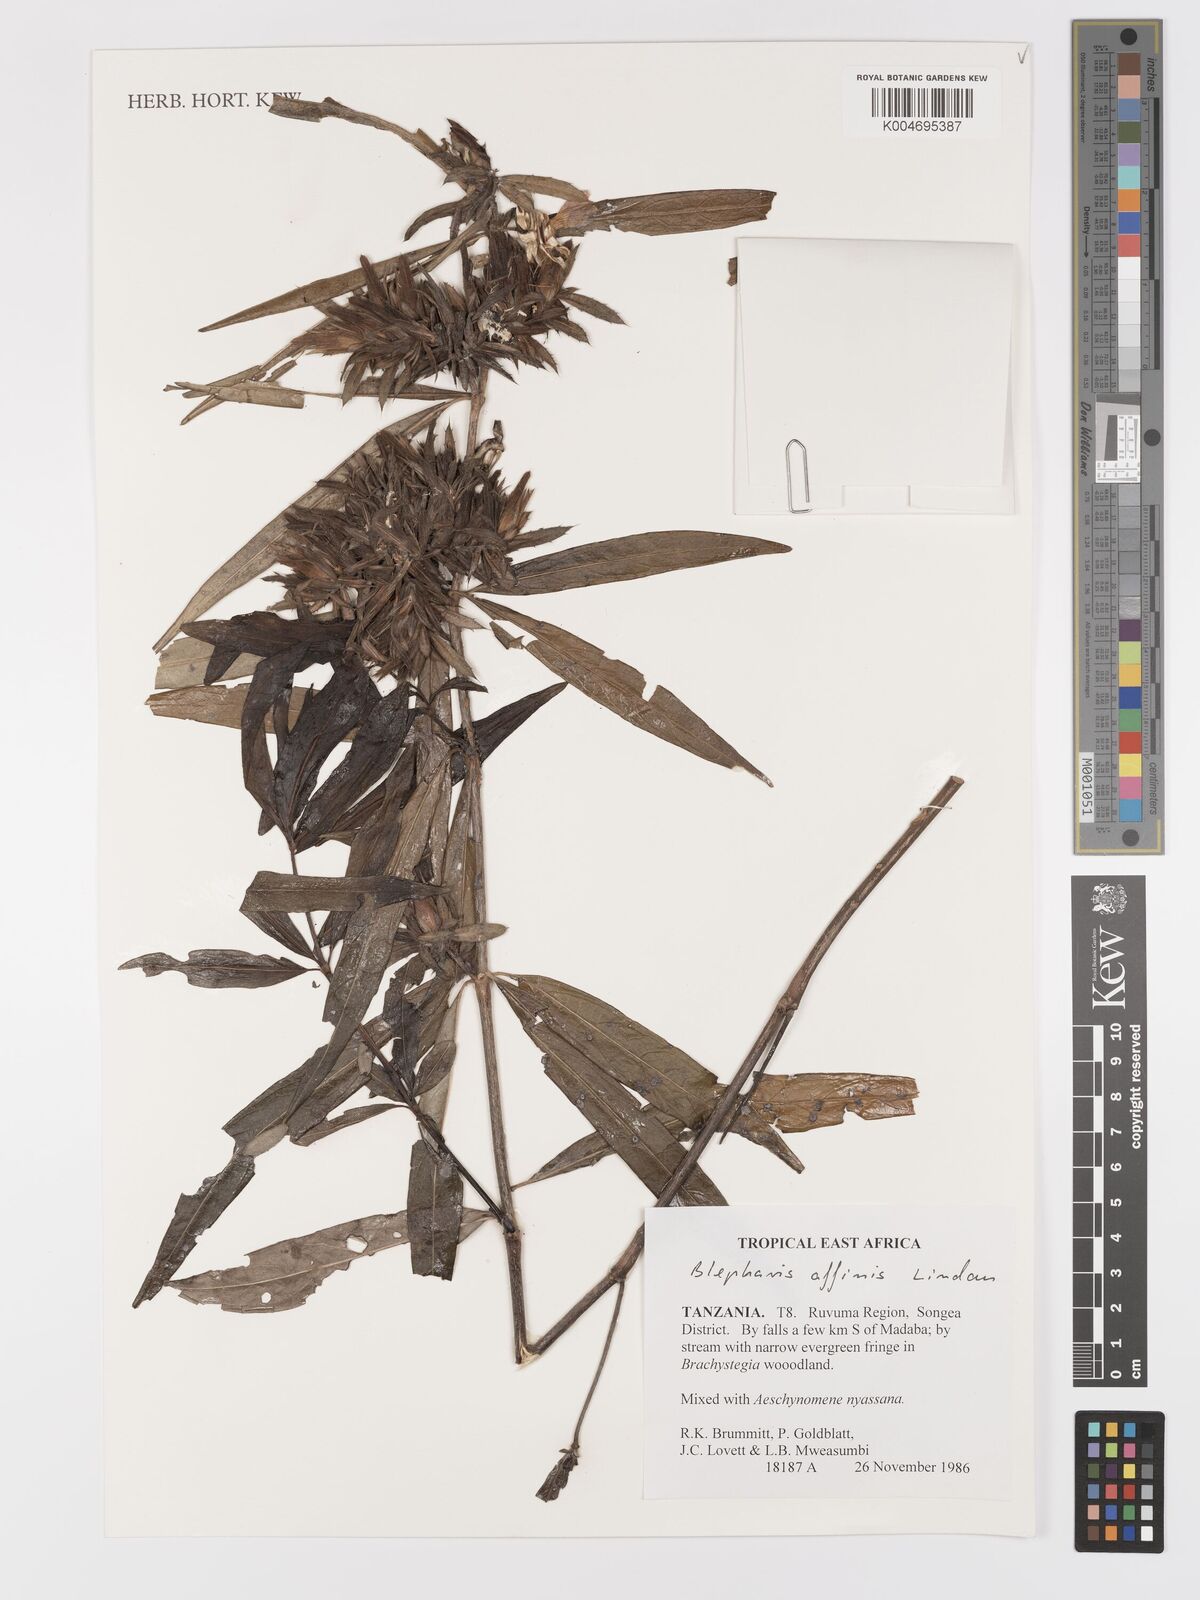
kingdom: Plantae
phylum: Tracheophyta
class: Magnoliopsida
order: Lamiales
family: Acanthaceae
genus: Blepharis
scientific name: Blepharis affinis
